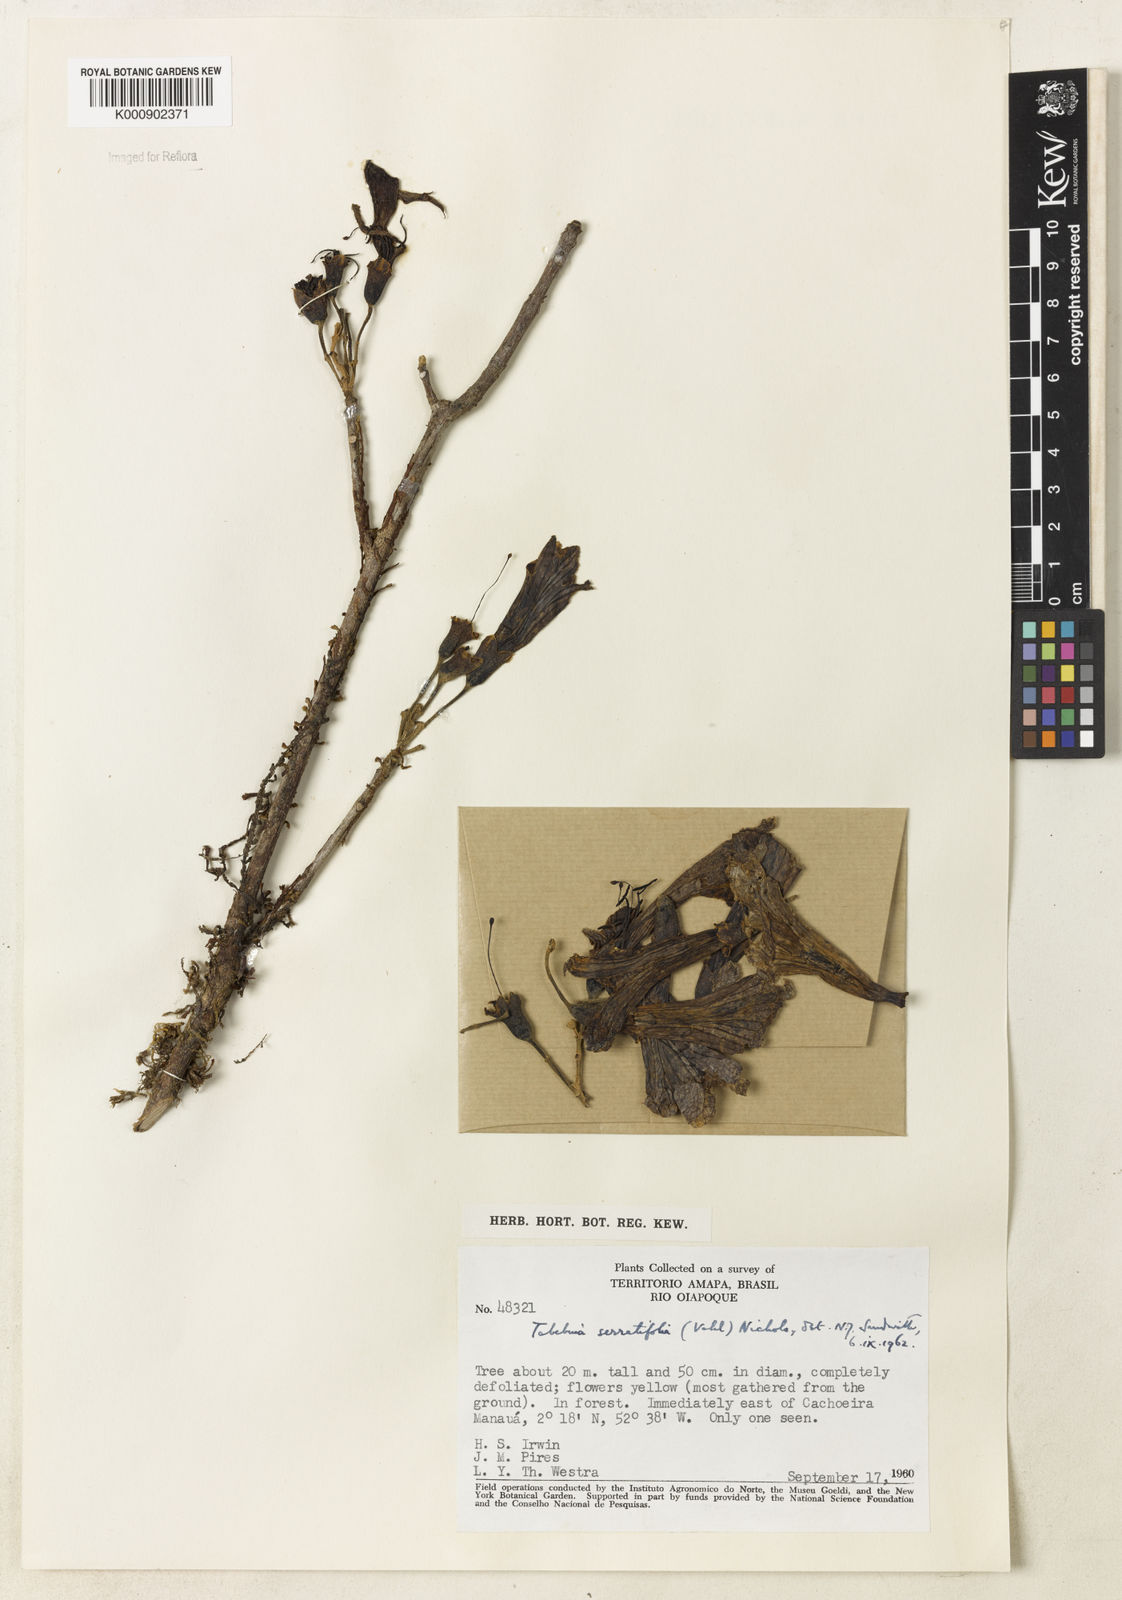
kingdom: Plantae
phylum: Tracheophyta
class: Magnoliopsida
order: Lamiales
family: Bignoniaceae
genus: Handroanthus
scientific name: Handroanthus serratifolius
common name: Yellow ipe
